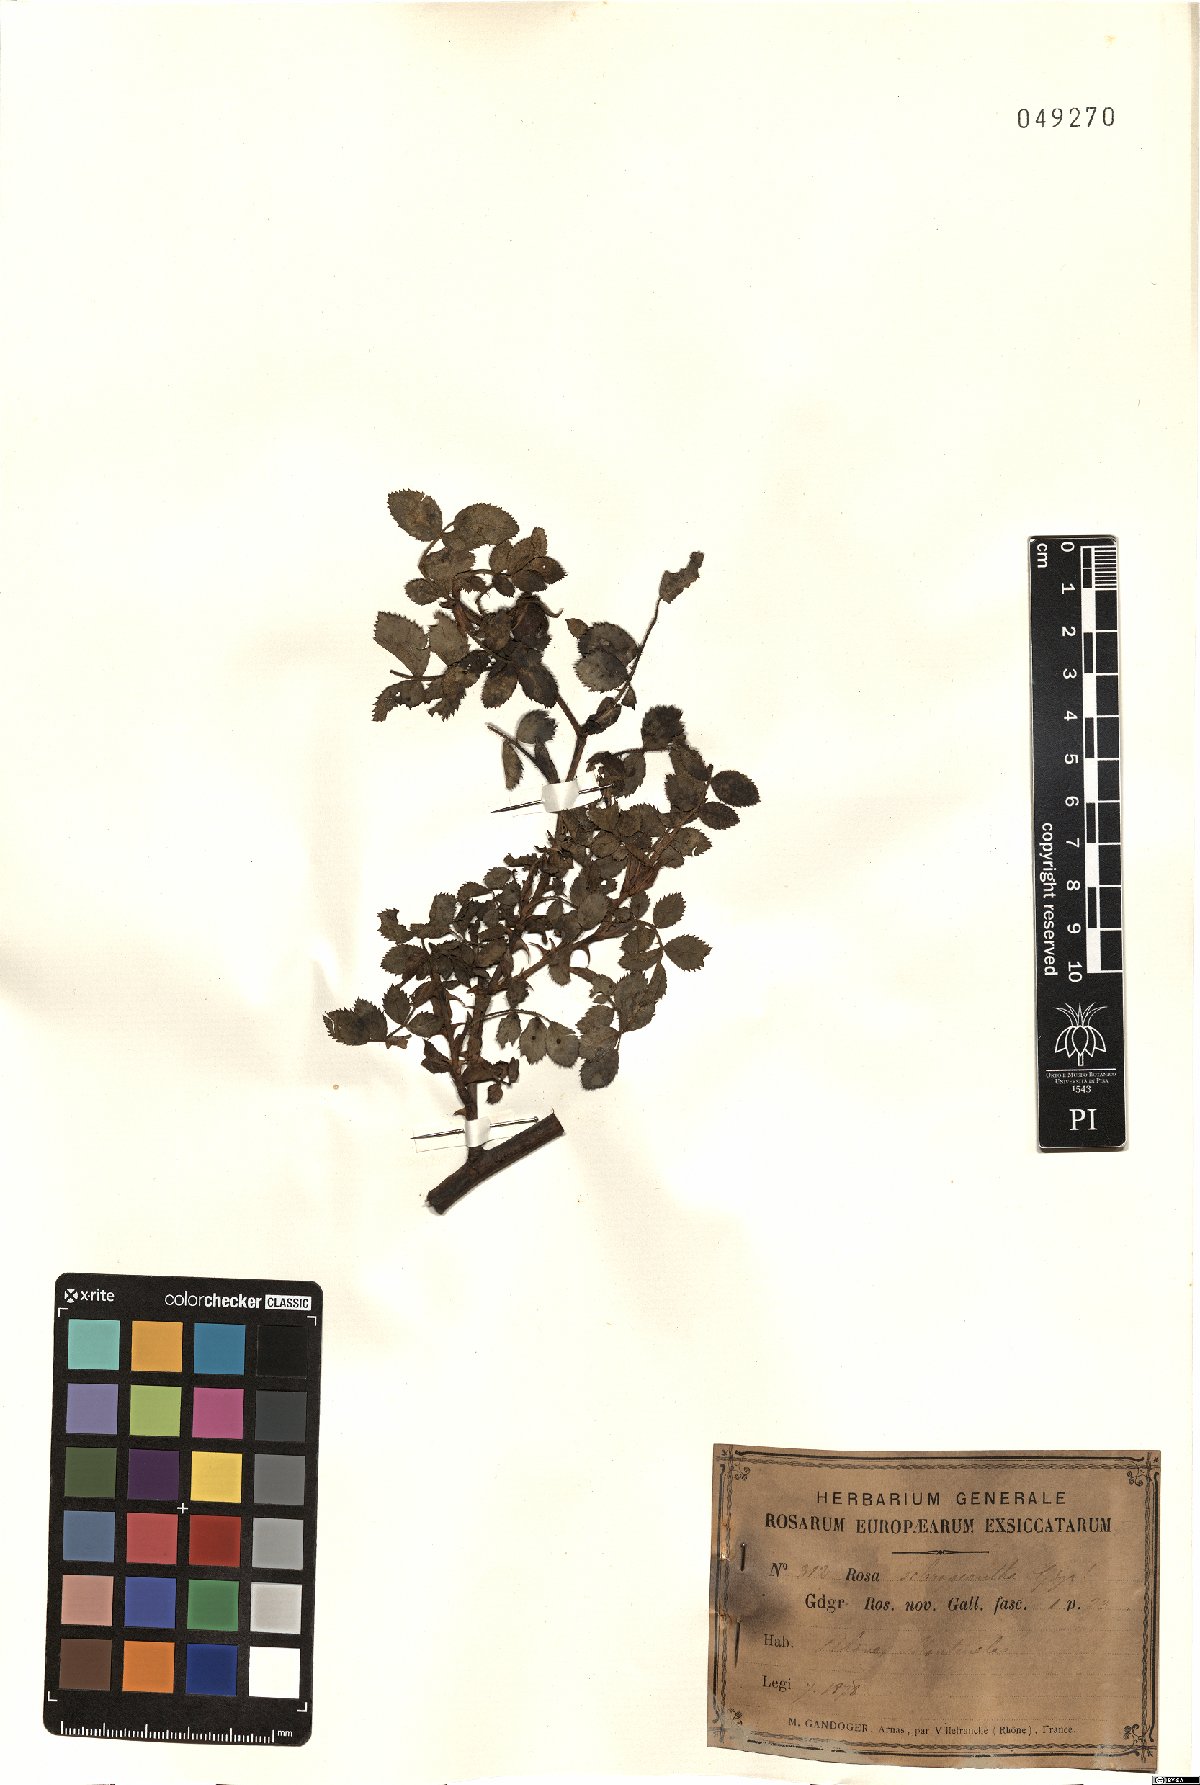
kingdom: Plantae
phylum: Tracheophyta
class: Magnoliopsida
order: Rosales
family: Rosaceae
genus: Rosa
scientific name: Rosa sclerocantha
